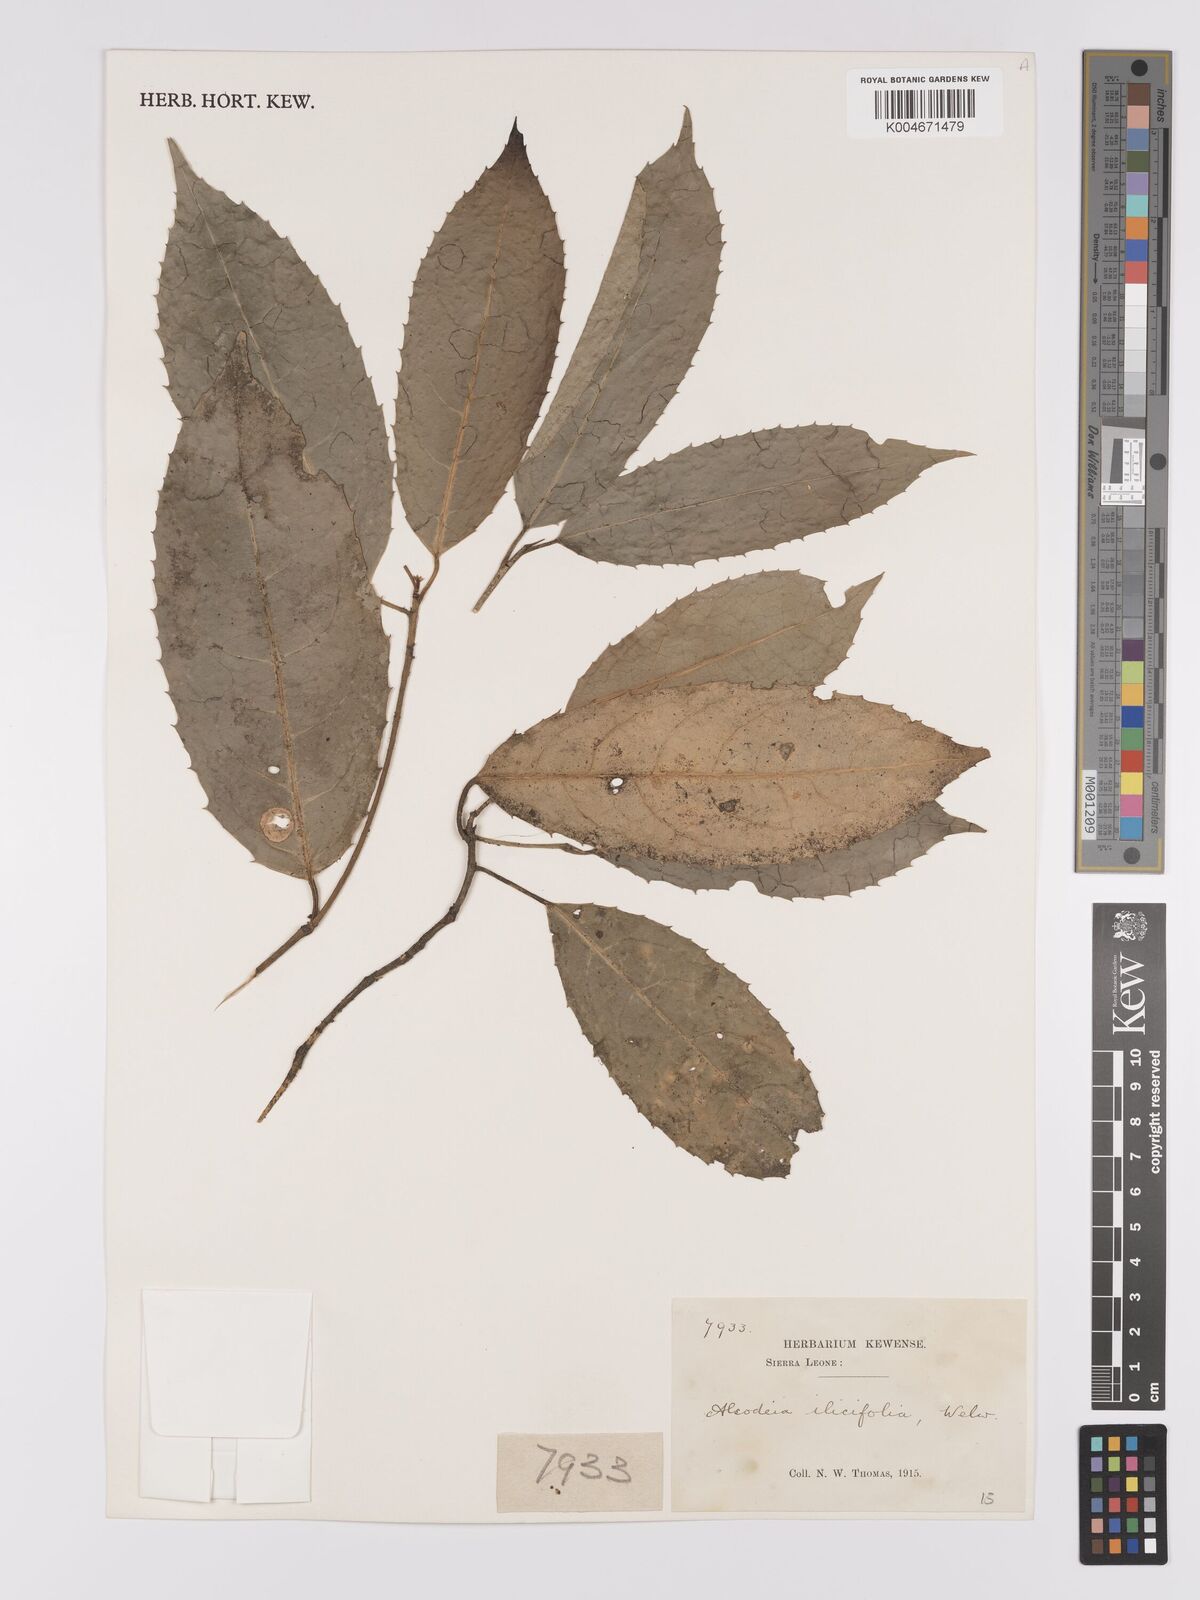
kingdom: Plantae
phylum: Tracheophyta
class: Magnoliopsida
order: Malpighiales
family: Violaceae
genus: Rinorea
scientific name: Rinorea ilicifolia
